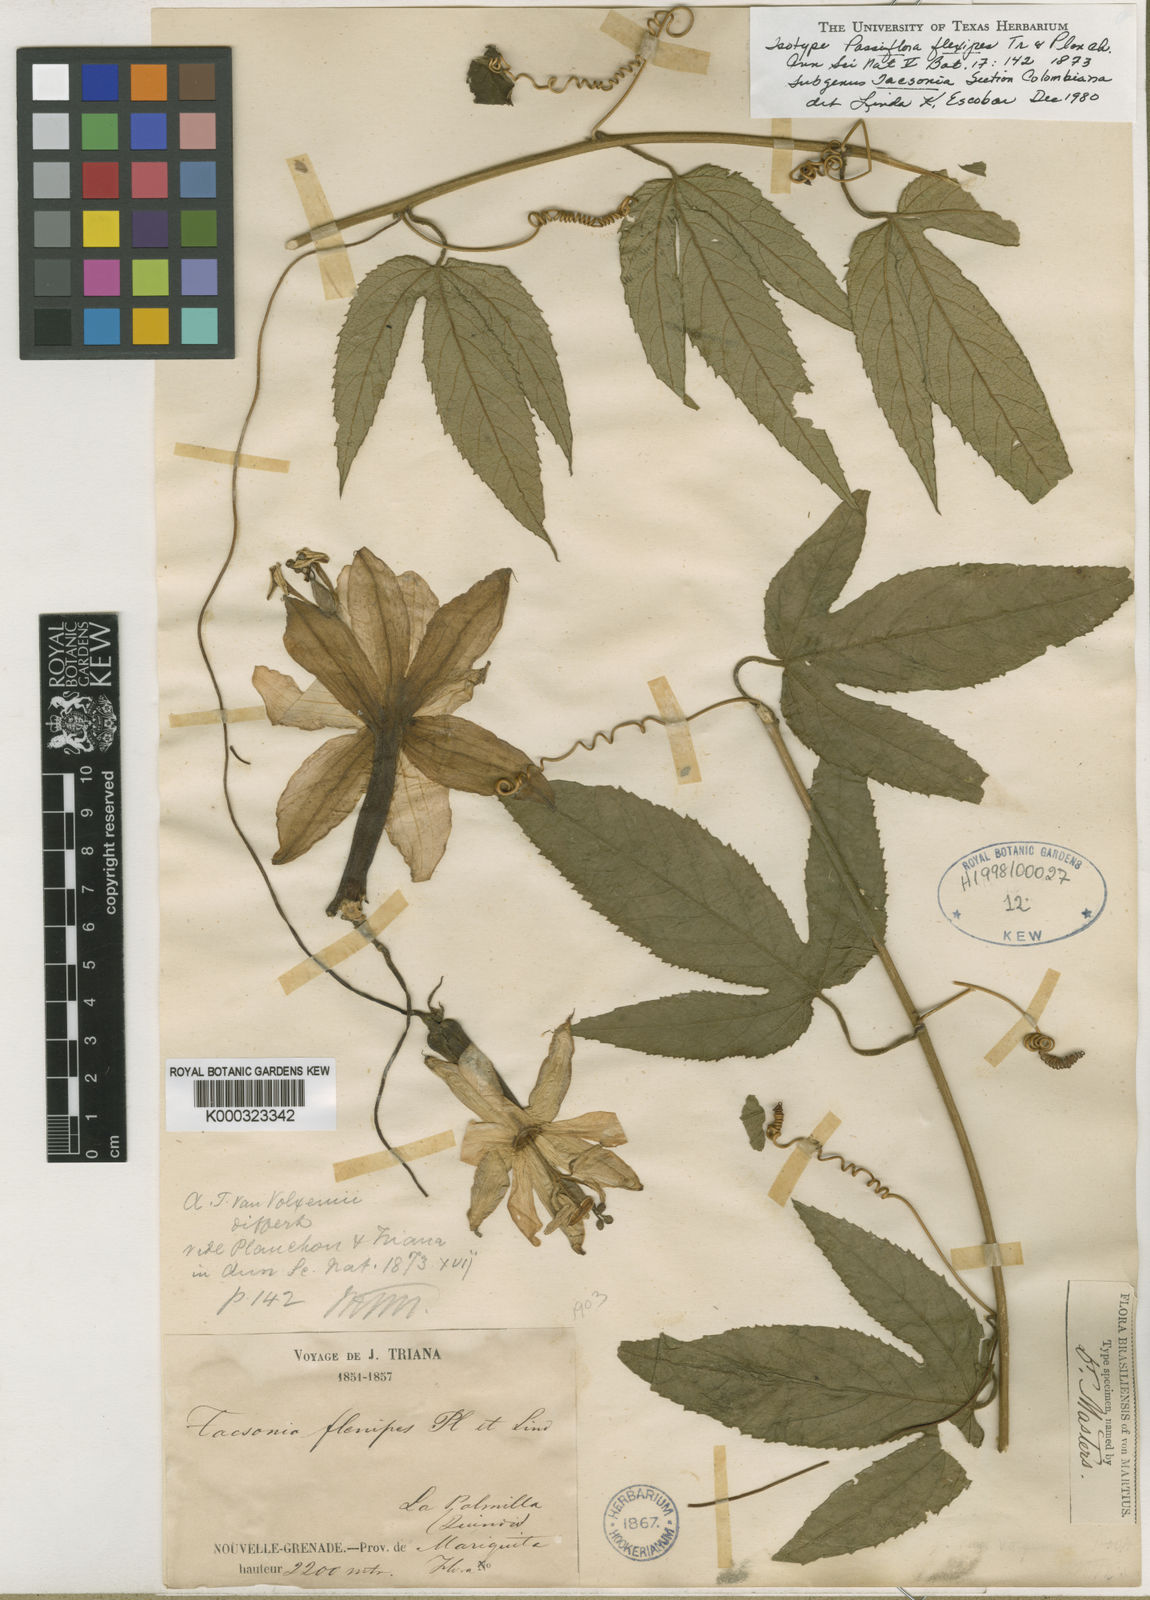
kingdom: Plantae
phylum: Tracheophyta
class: Magnoliopsida
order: Malpighiales
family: Passifloraceae
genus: Passiflora
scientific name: Passiflora flexipes
